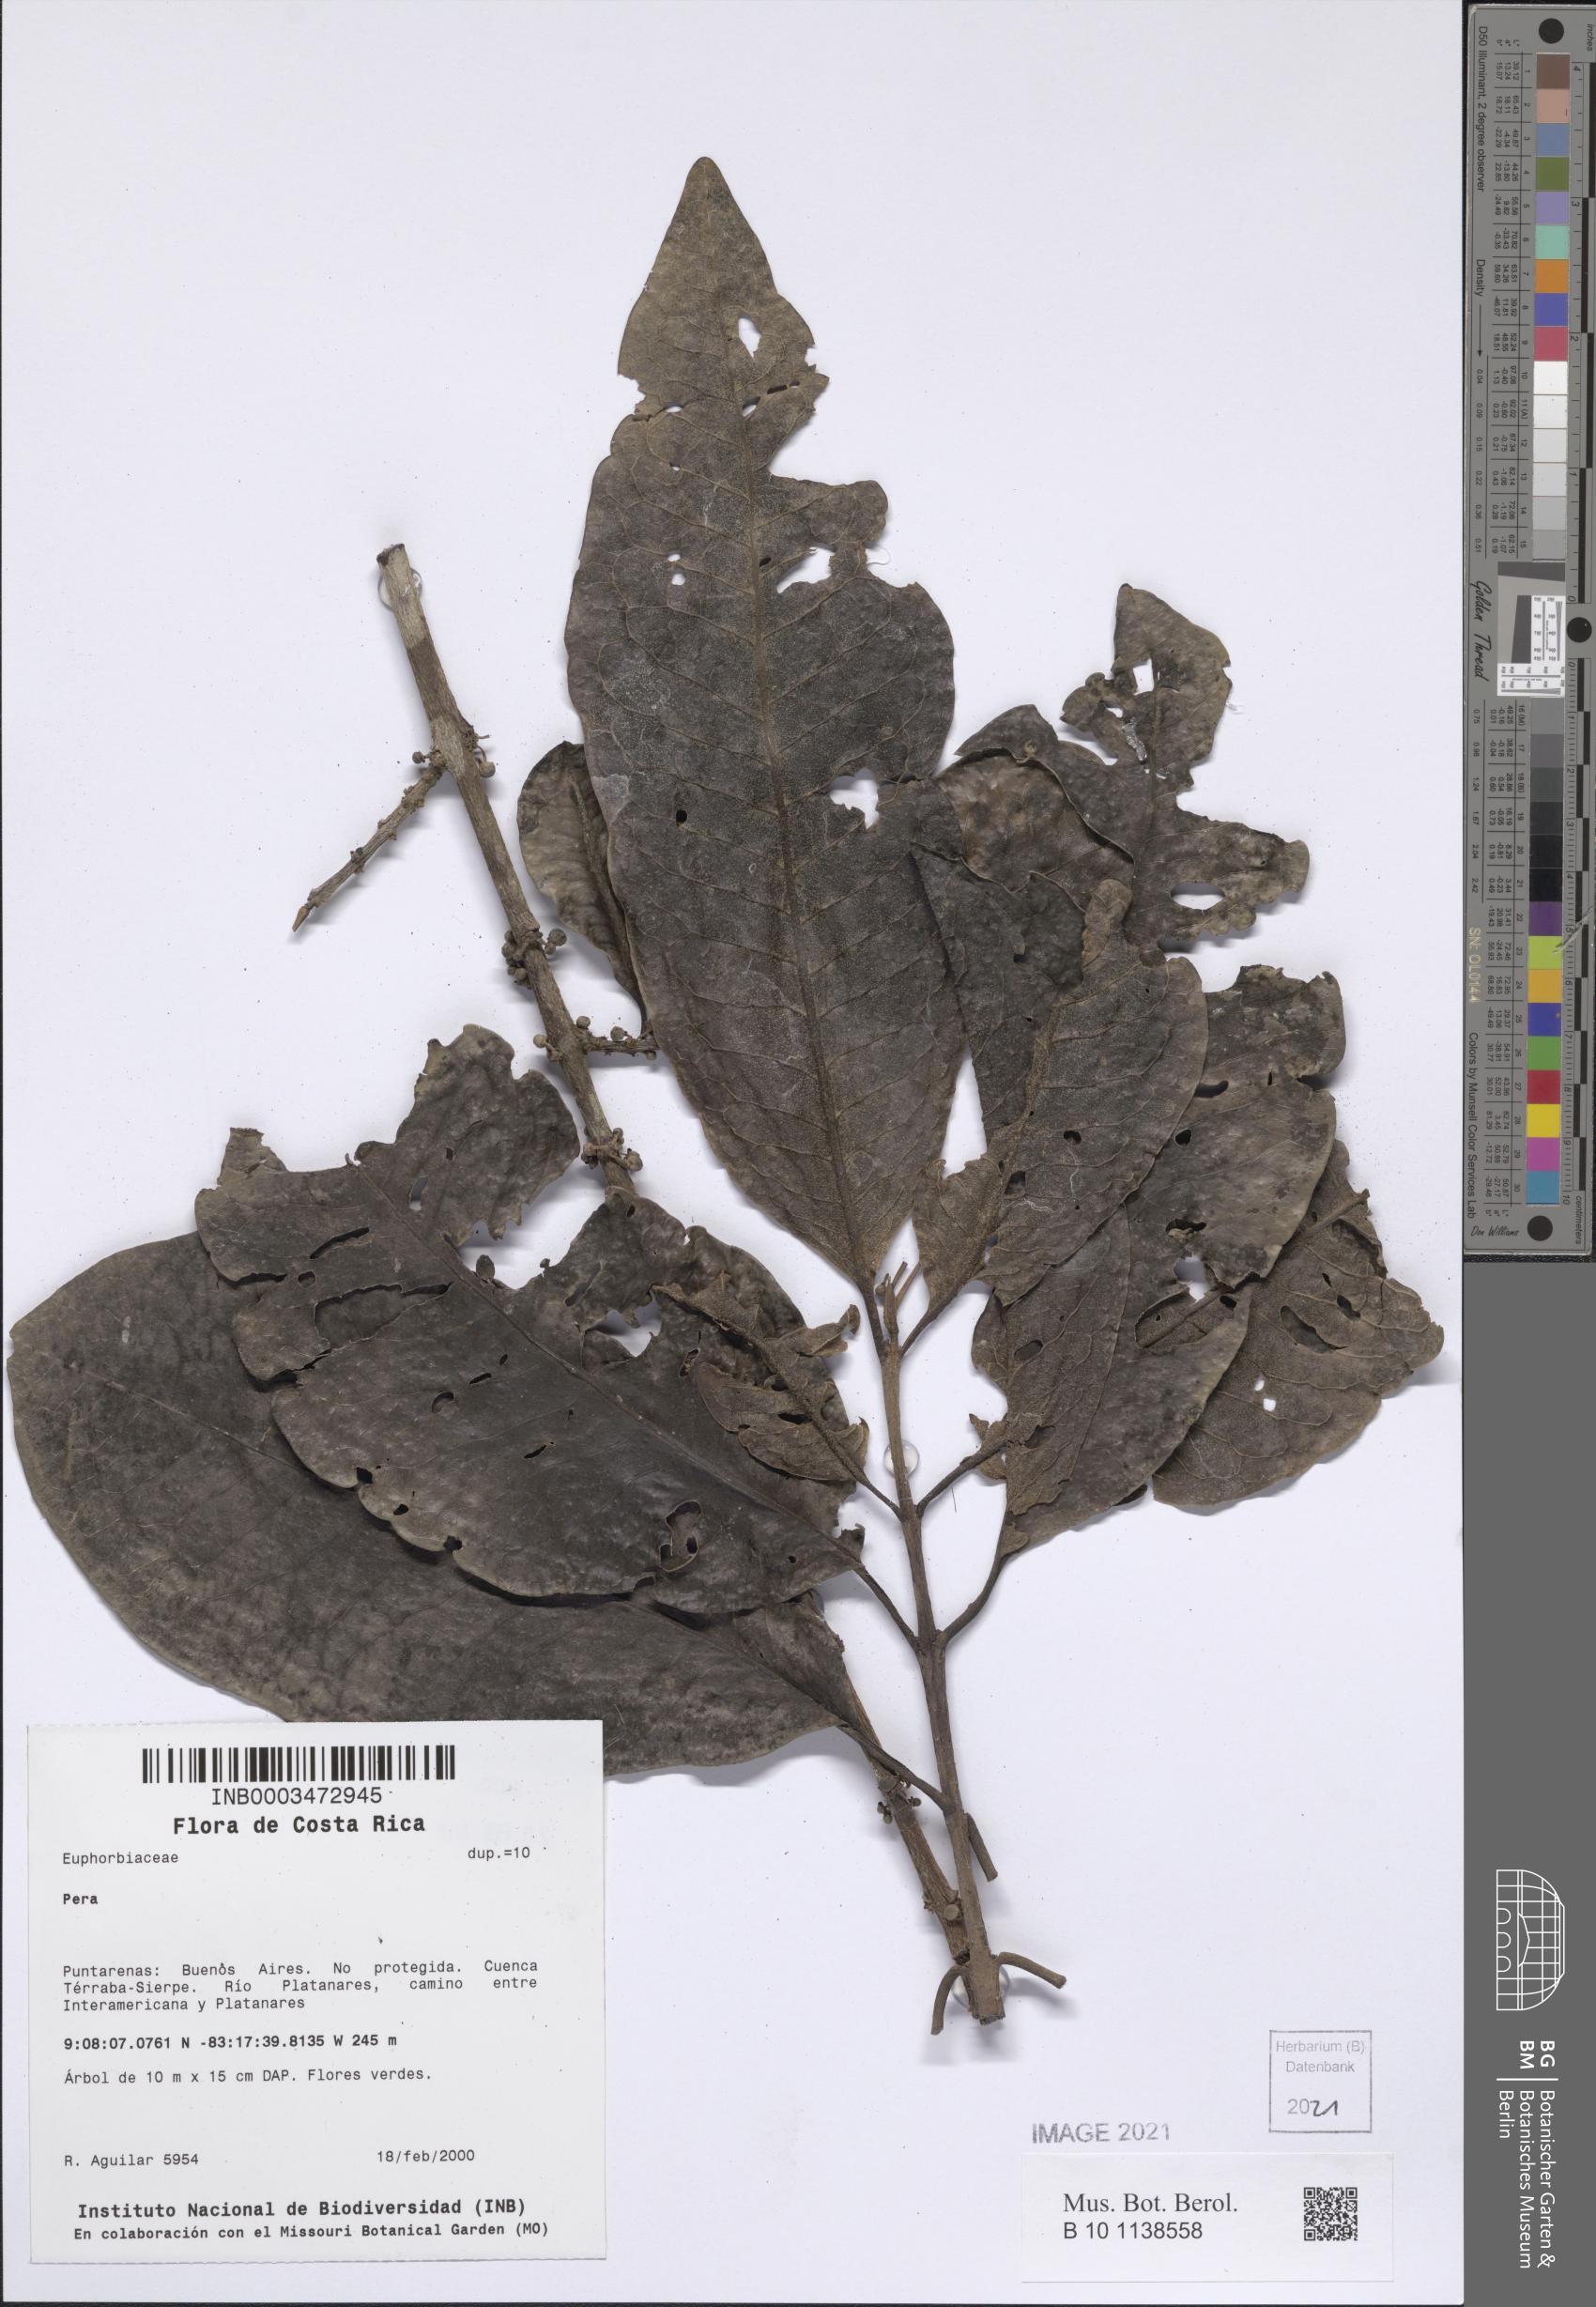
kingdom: Plantae
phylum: Tracheophyta
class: Magnoliopsida
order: Malpighiales
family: Peraceae
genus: Pera
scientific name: Pera oppositifolia
